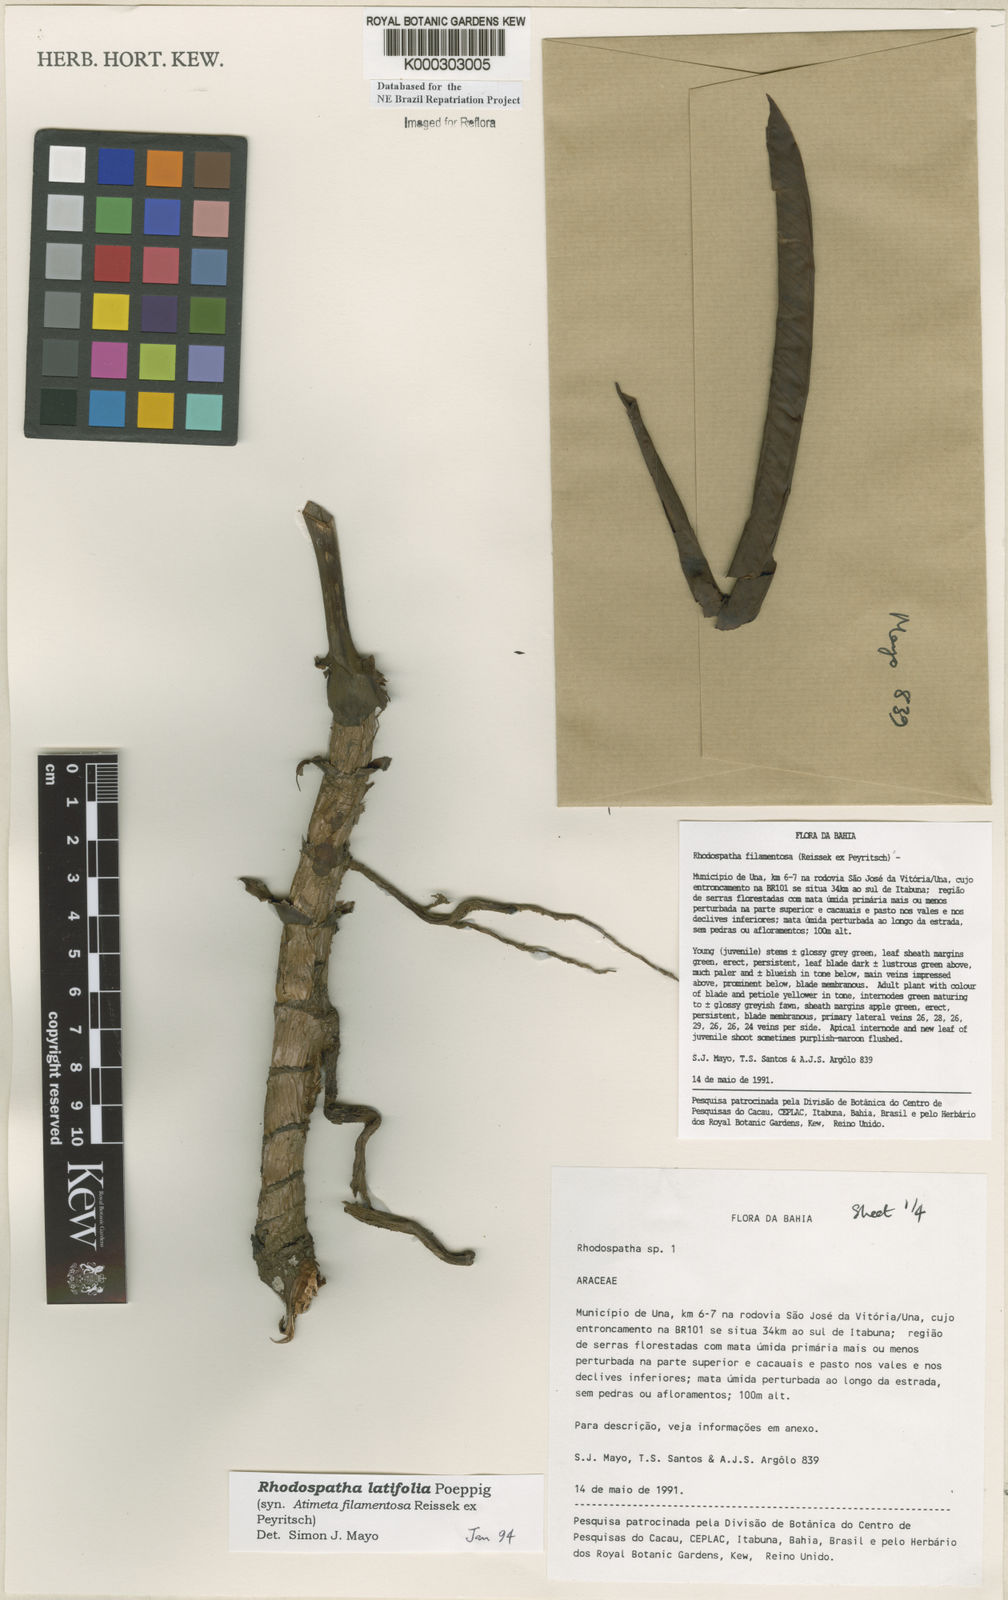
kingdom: Plantae
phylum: Tracheophyta
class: Liliopsida
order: Alismatales
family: Araceae
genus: Rhodospatha
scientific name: Rhodospatha latifolia
